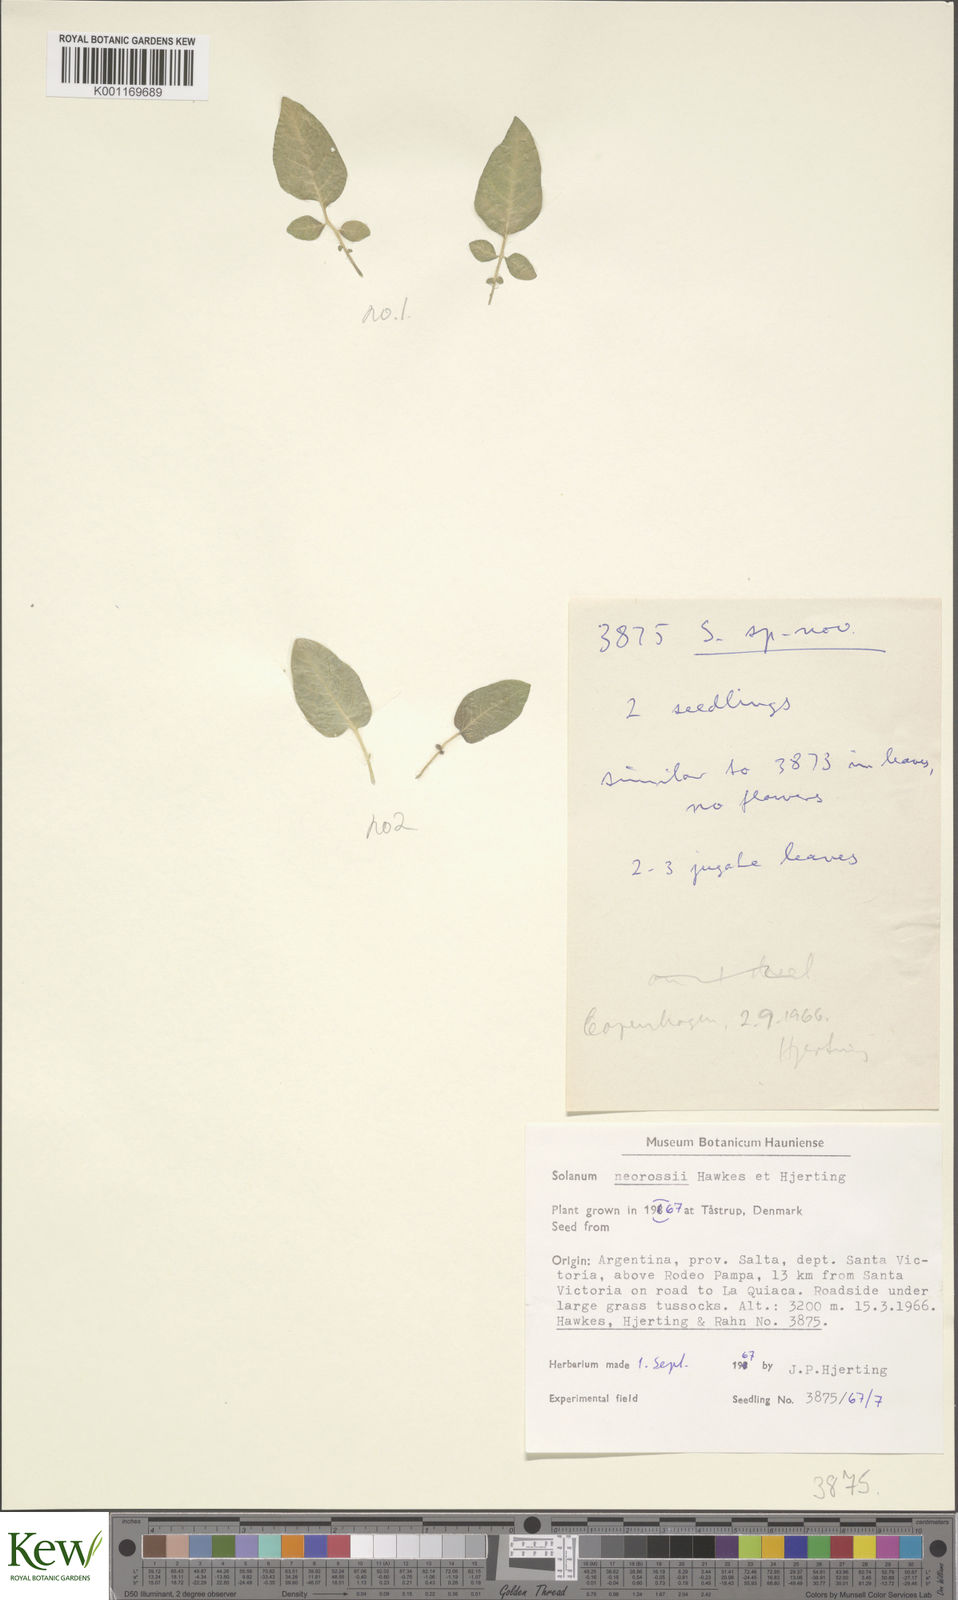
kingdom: Plantae
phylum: Tracheophyta
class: Magnoliopsida
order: Solanales
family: Solanaceae
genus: Solanum
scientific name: Solanum neorossii
